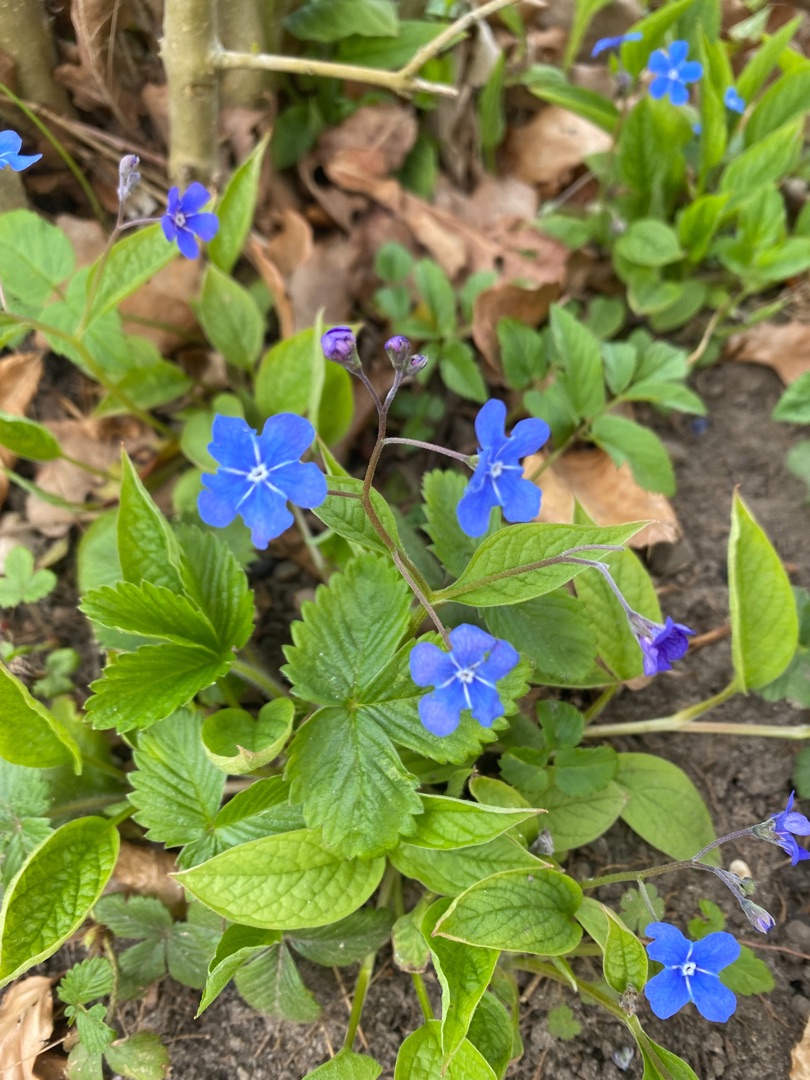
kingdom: Plantae
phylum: Tracheophyta
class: Magnoliopsida
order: Boraginales
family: Boraginaceae
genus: Omphalodes
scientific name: Omphalodes verna
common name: Vår-kærminde
